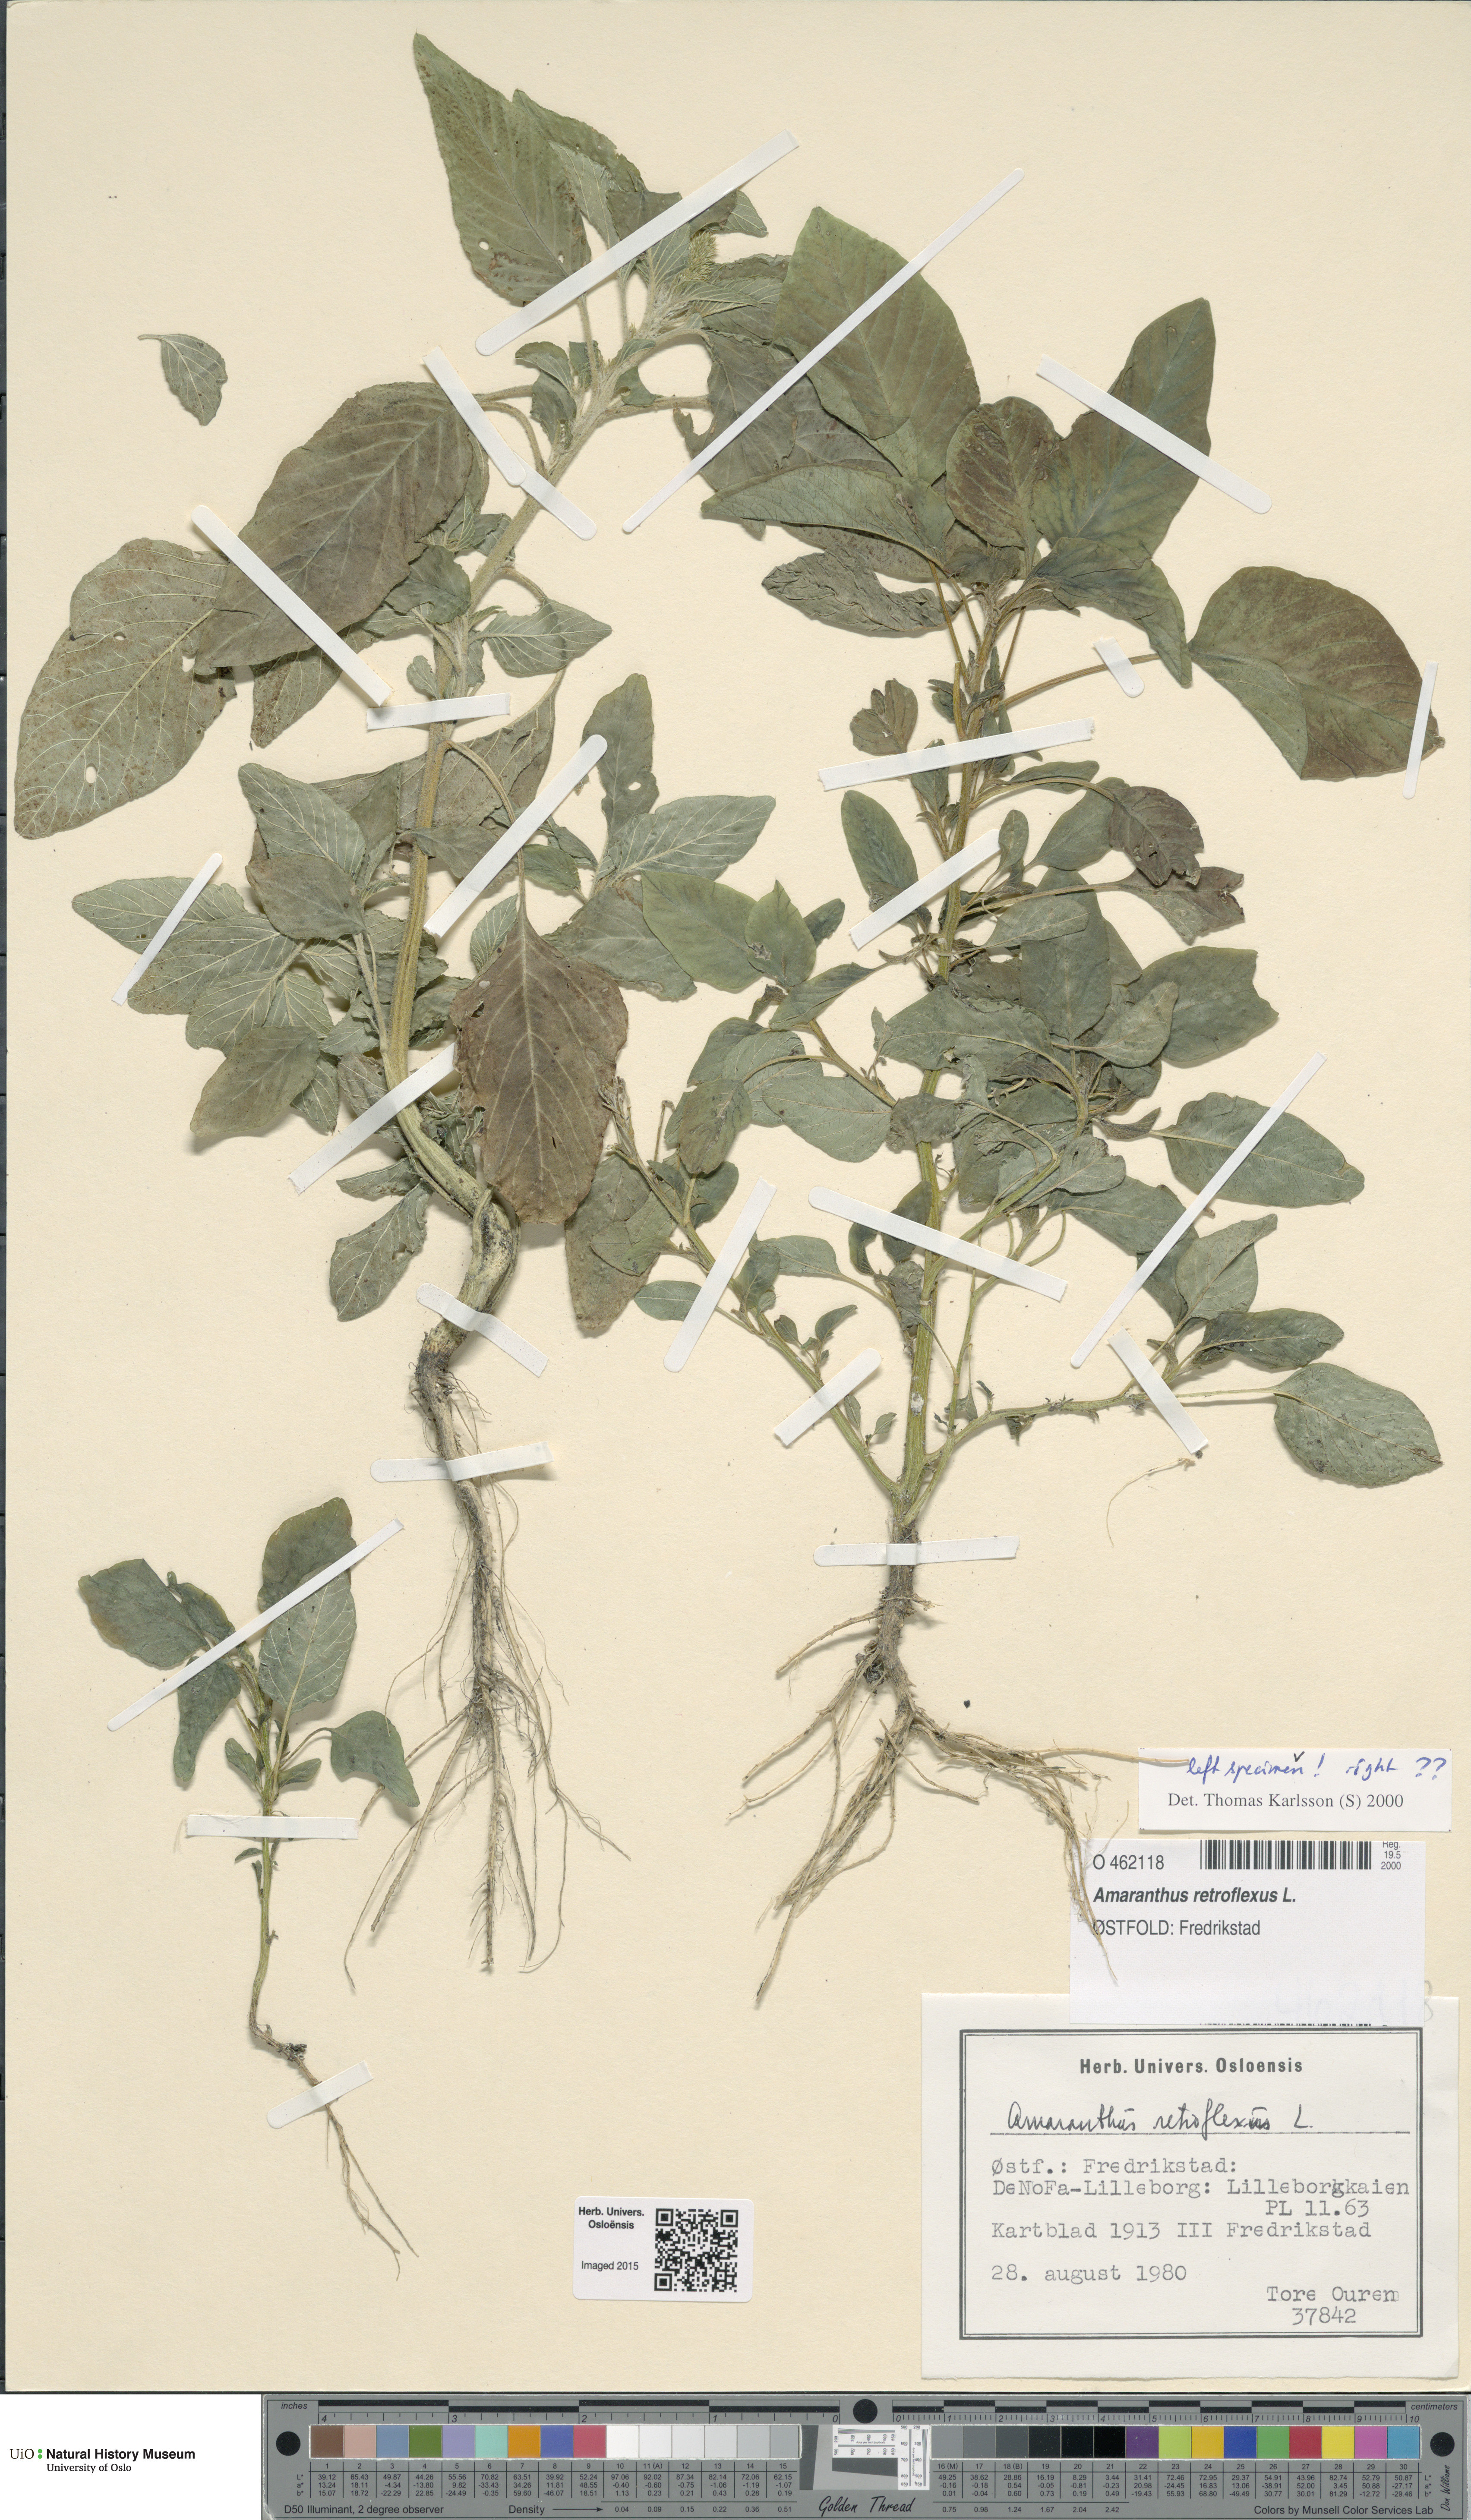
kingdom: Plantae
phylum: Tracheophyta
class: Magnoliopsida
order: Caryophyllales
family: Amaranthaceae
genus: Amaranthus
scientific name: Amaranthus retroflexus
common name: Redroot amaranth
